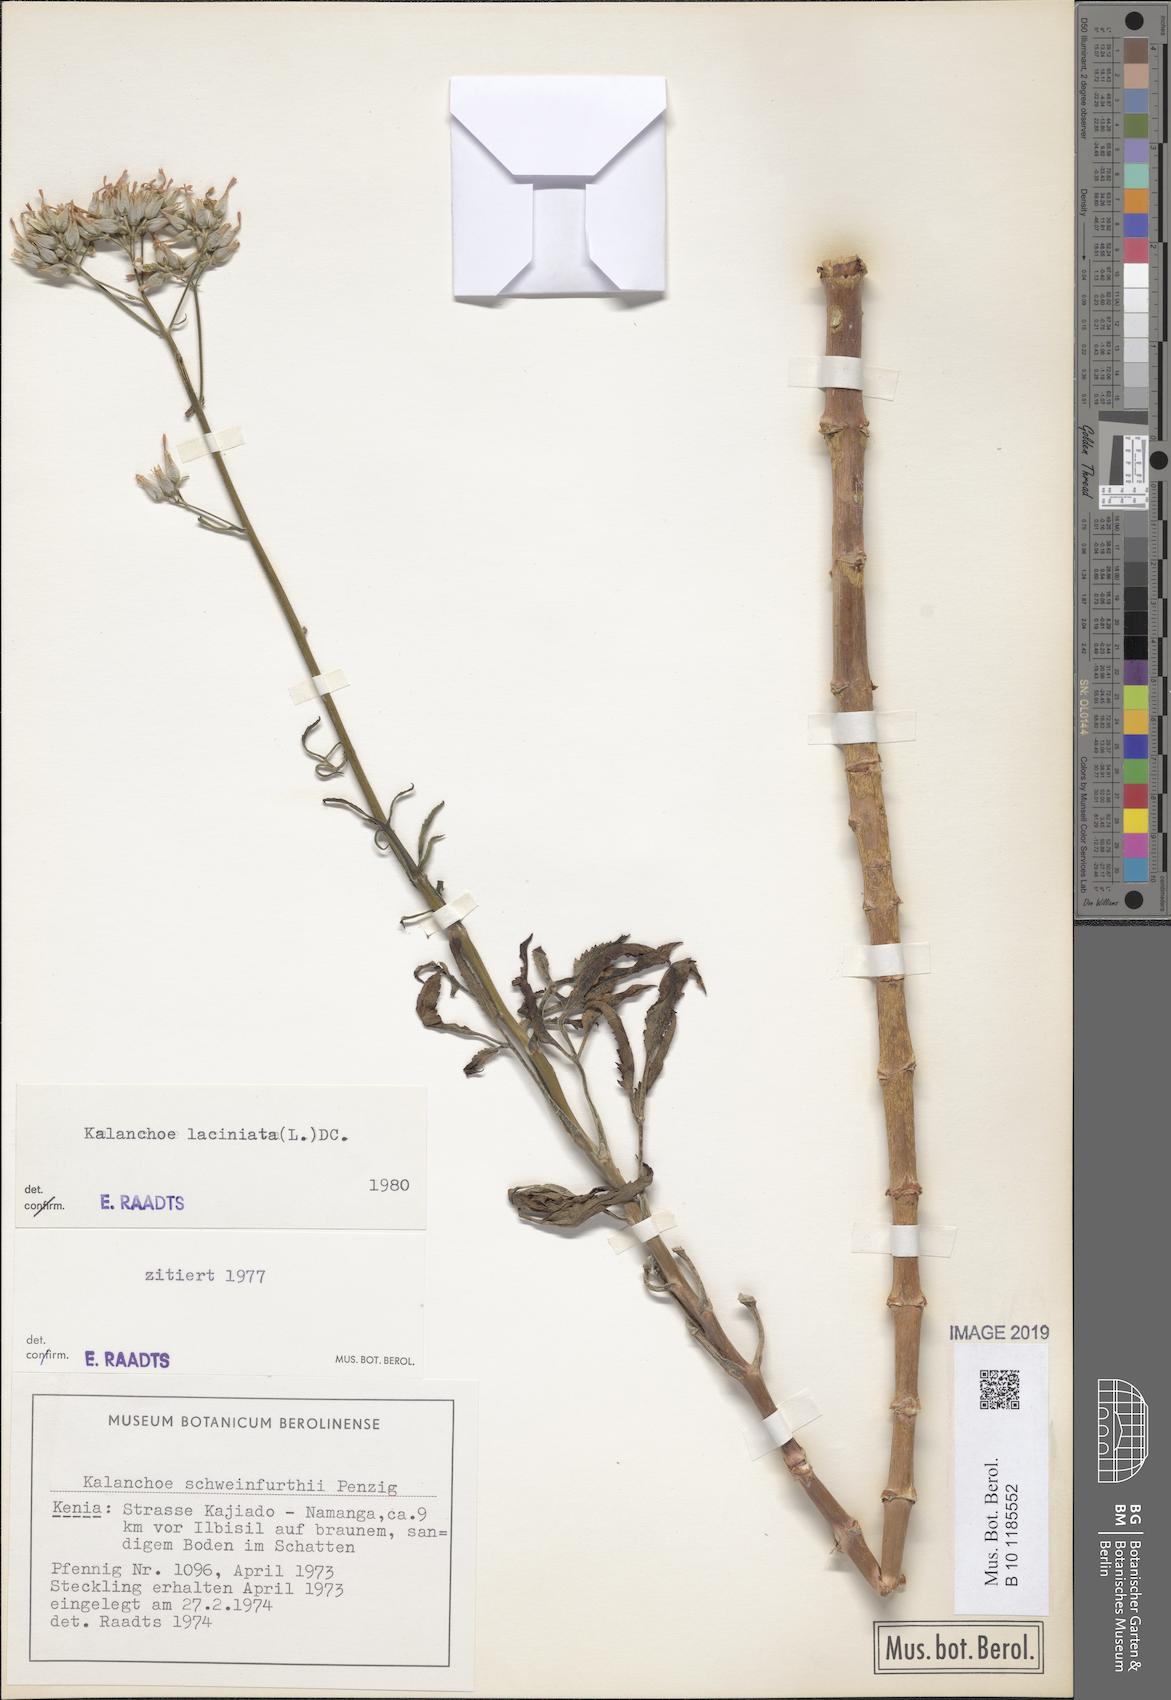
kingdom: Plantae
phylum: Tracheophyta
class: Magnoliopsida
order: Saxifragales
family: Crassulaceae
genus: Kalanchoe
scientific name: Kalanchoe laciniata
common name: Christmastree plant
